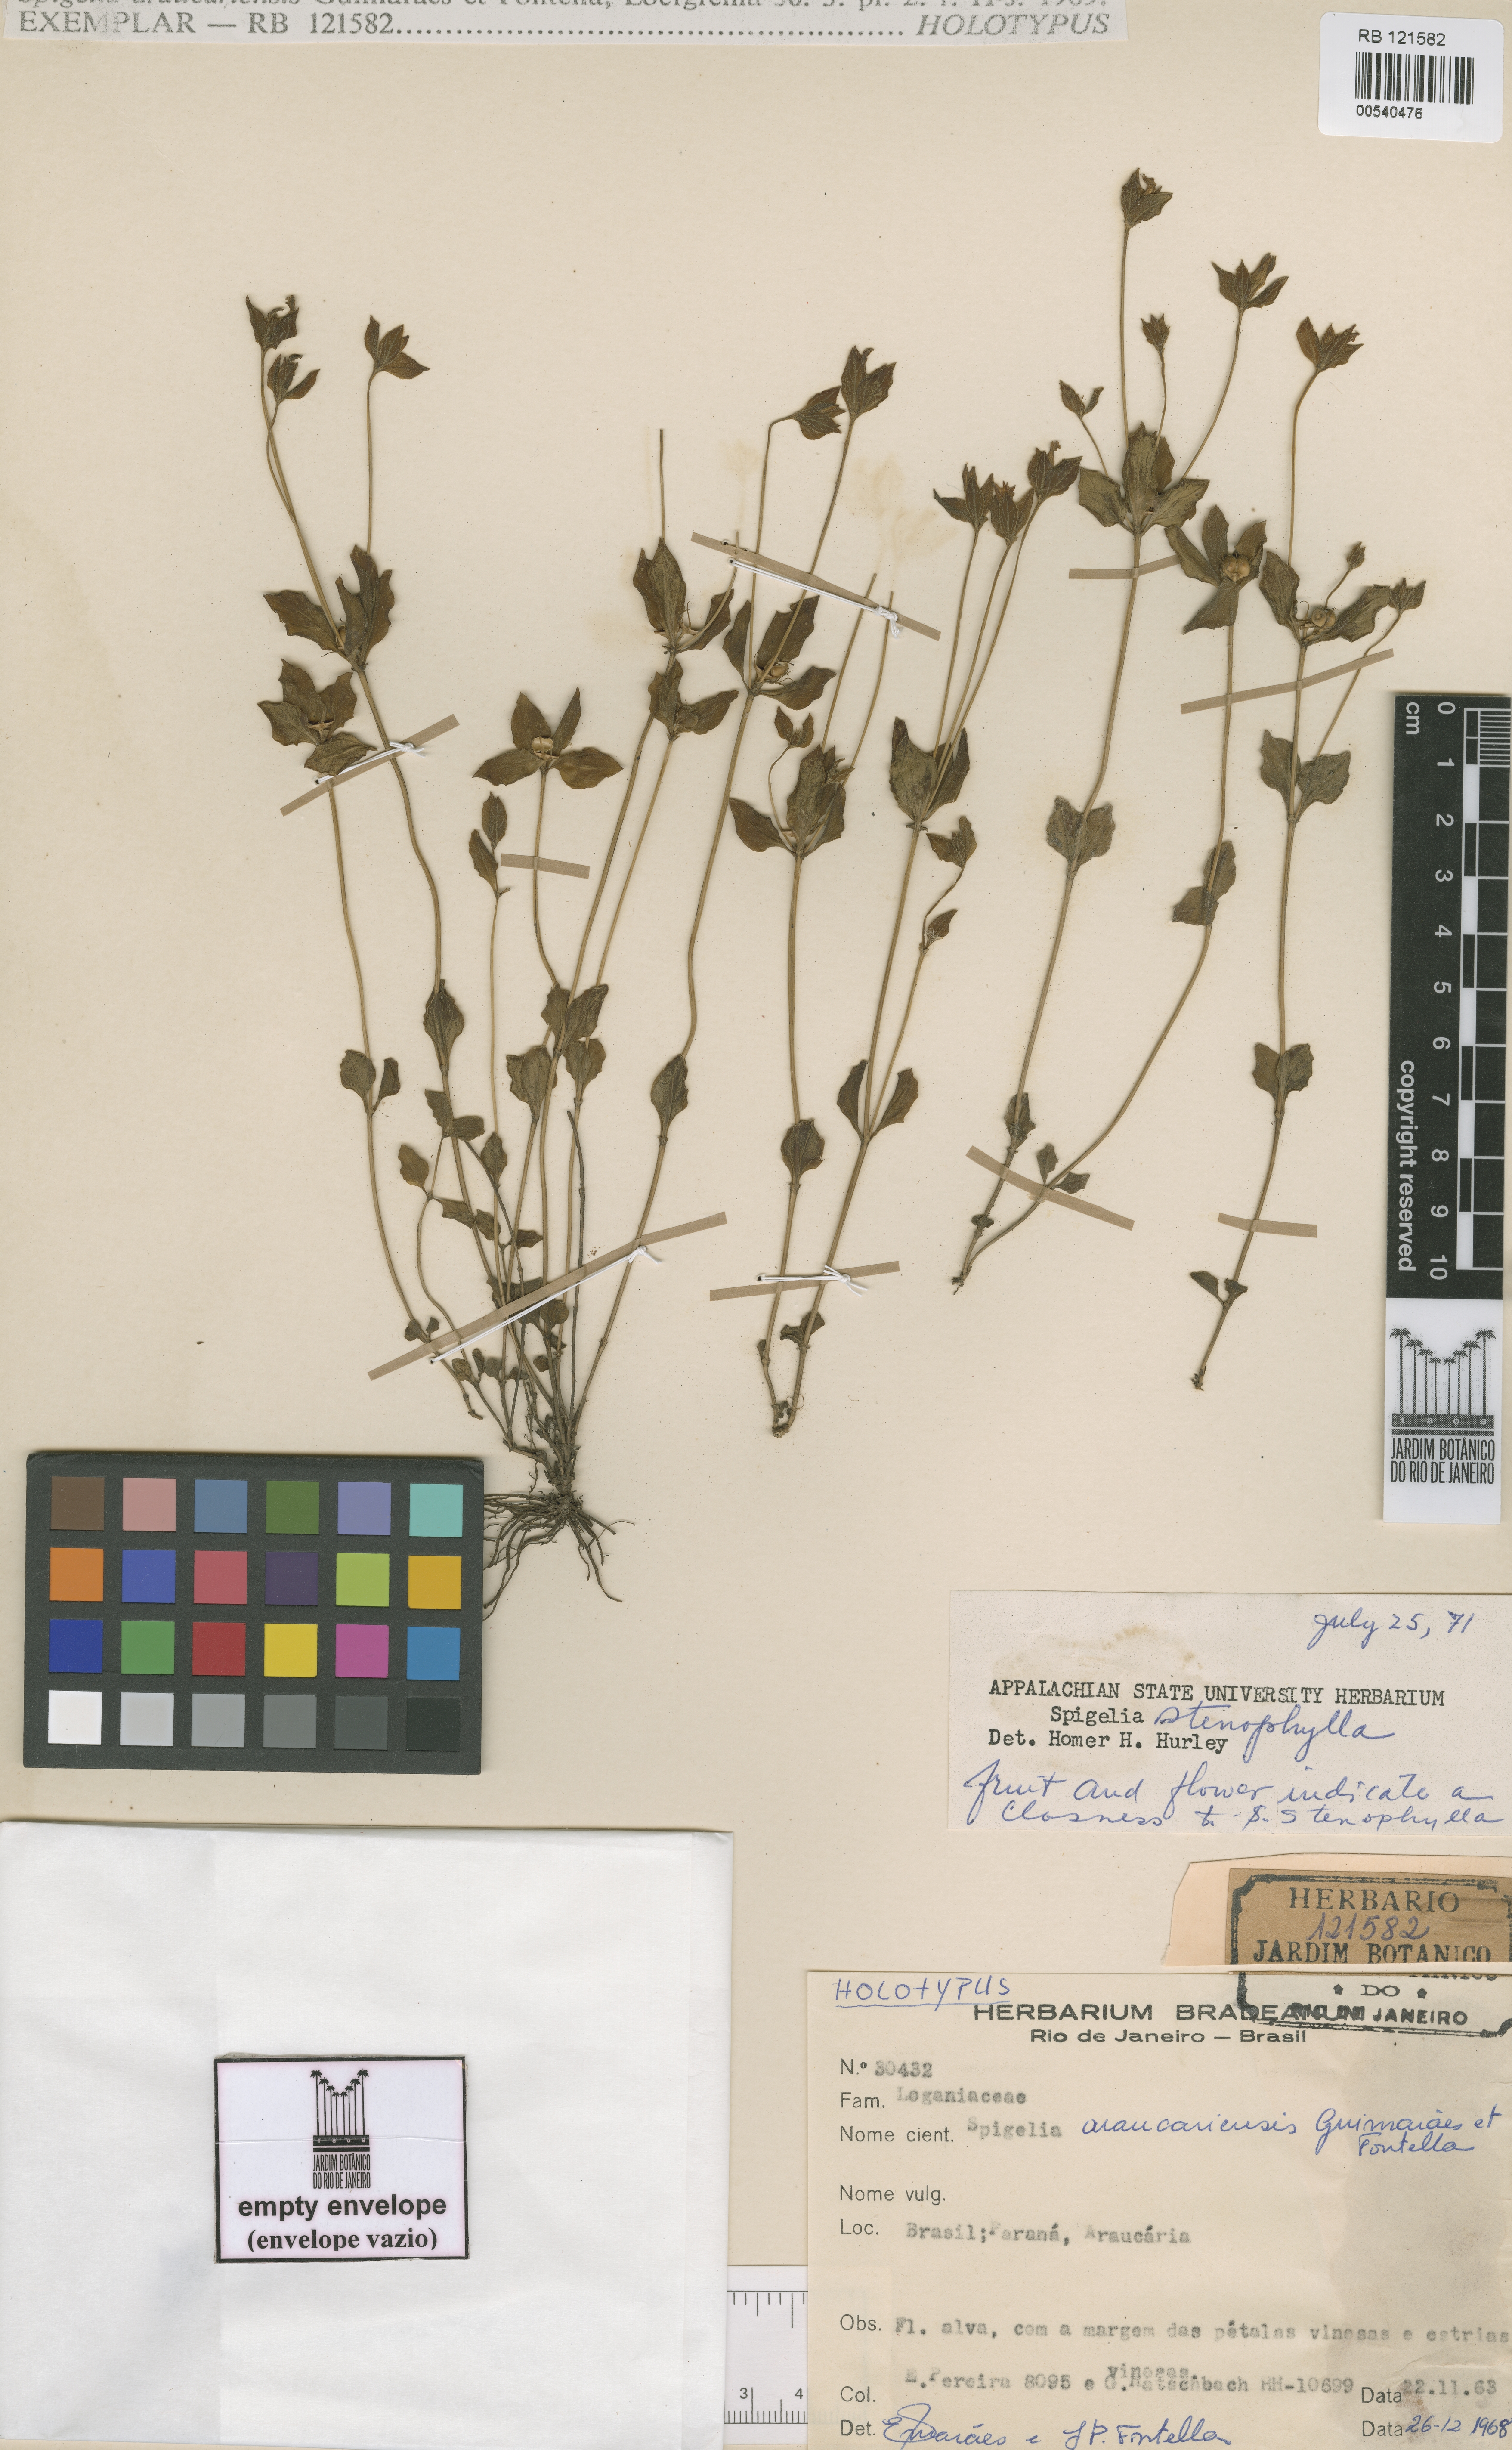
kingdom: Plantae
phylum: Tracheophyta
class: Magnoliopsida
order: Gentianales
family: Loganiaceae
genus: Spigelia
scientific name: Spigelia stenophylla
